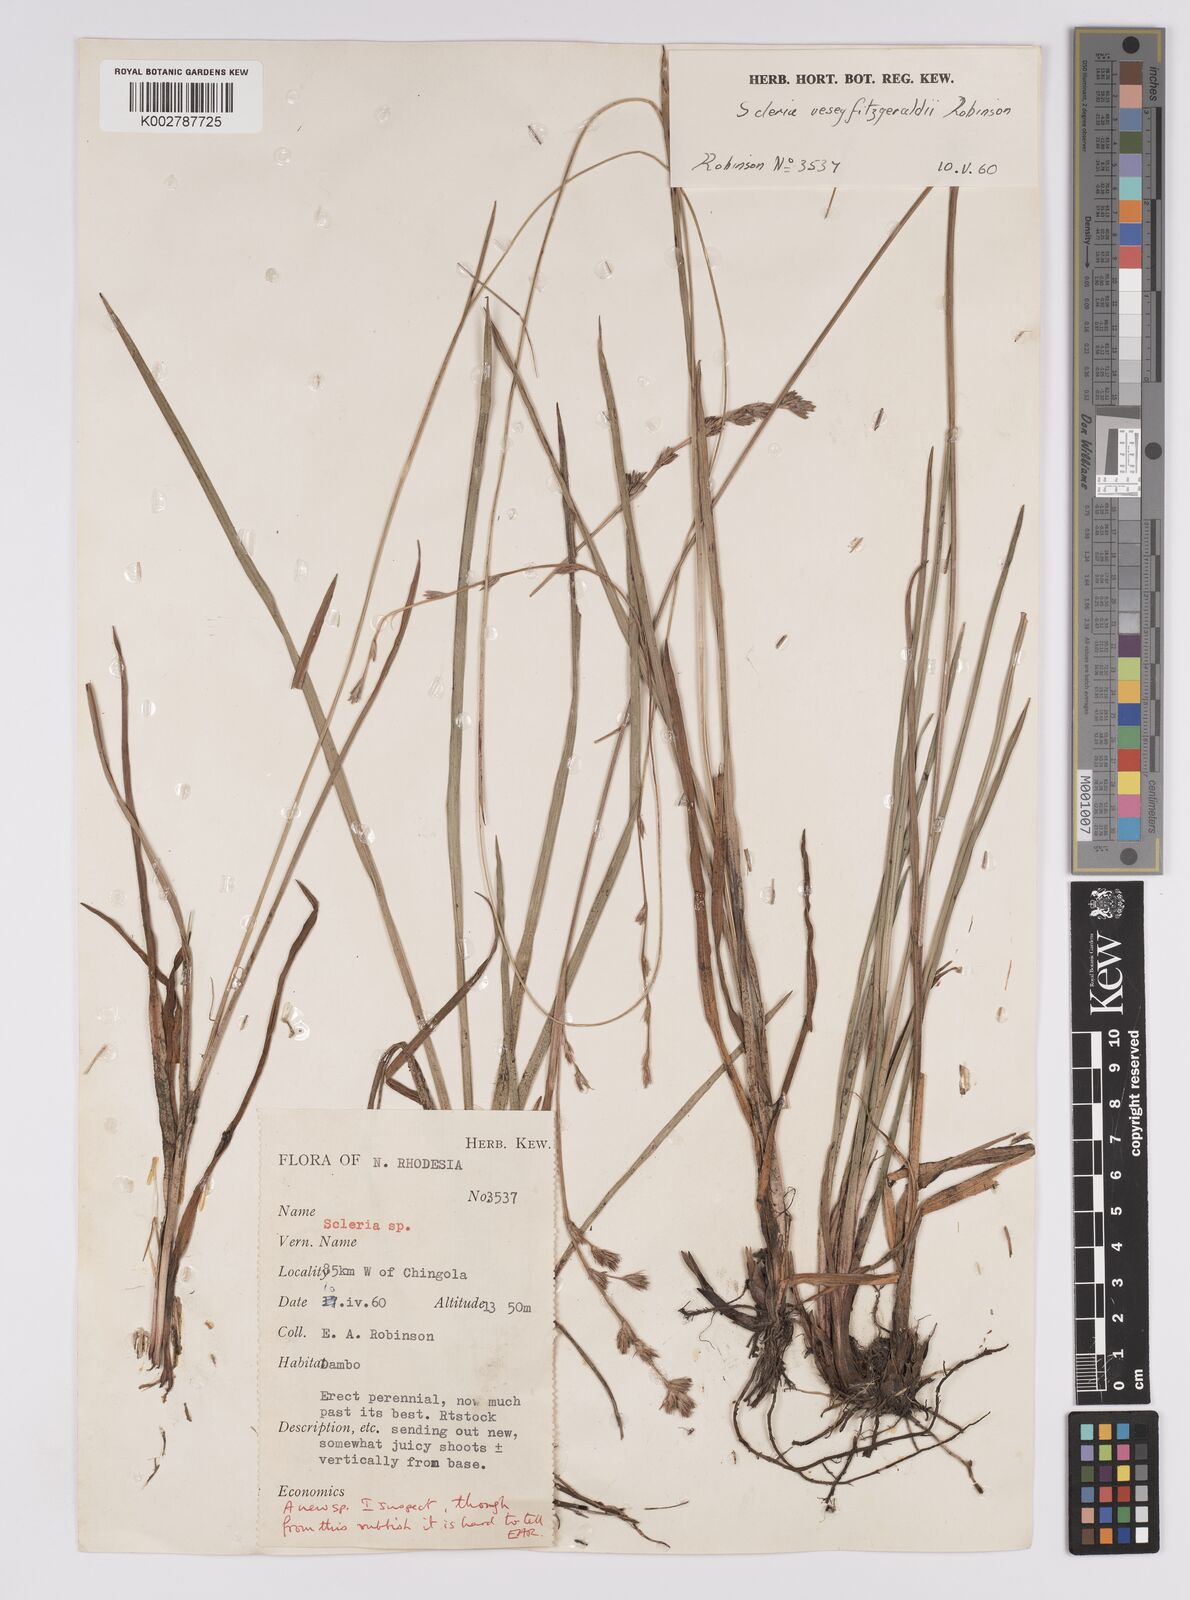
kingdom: Plantae
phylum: Tracheophyta
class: Liliopsida
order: Poales
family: Cyperaceae
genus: Scleria
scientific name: Scleria veseyfitzgeraldii
